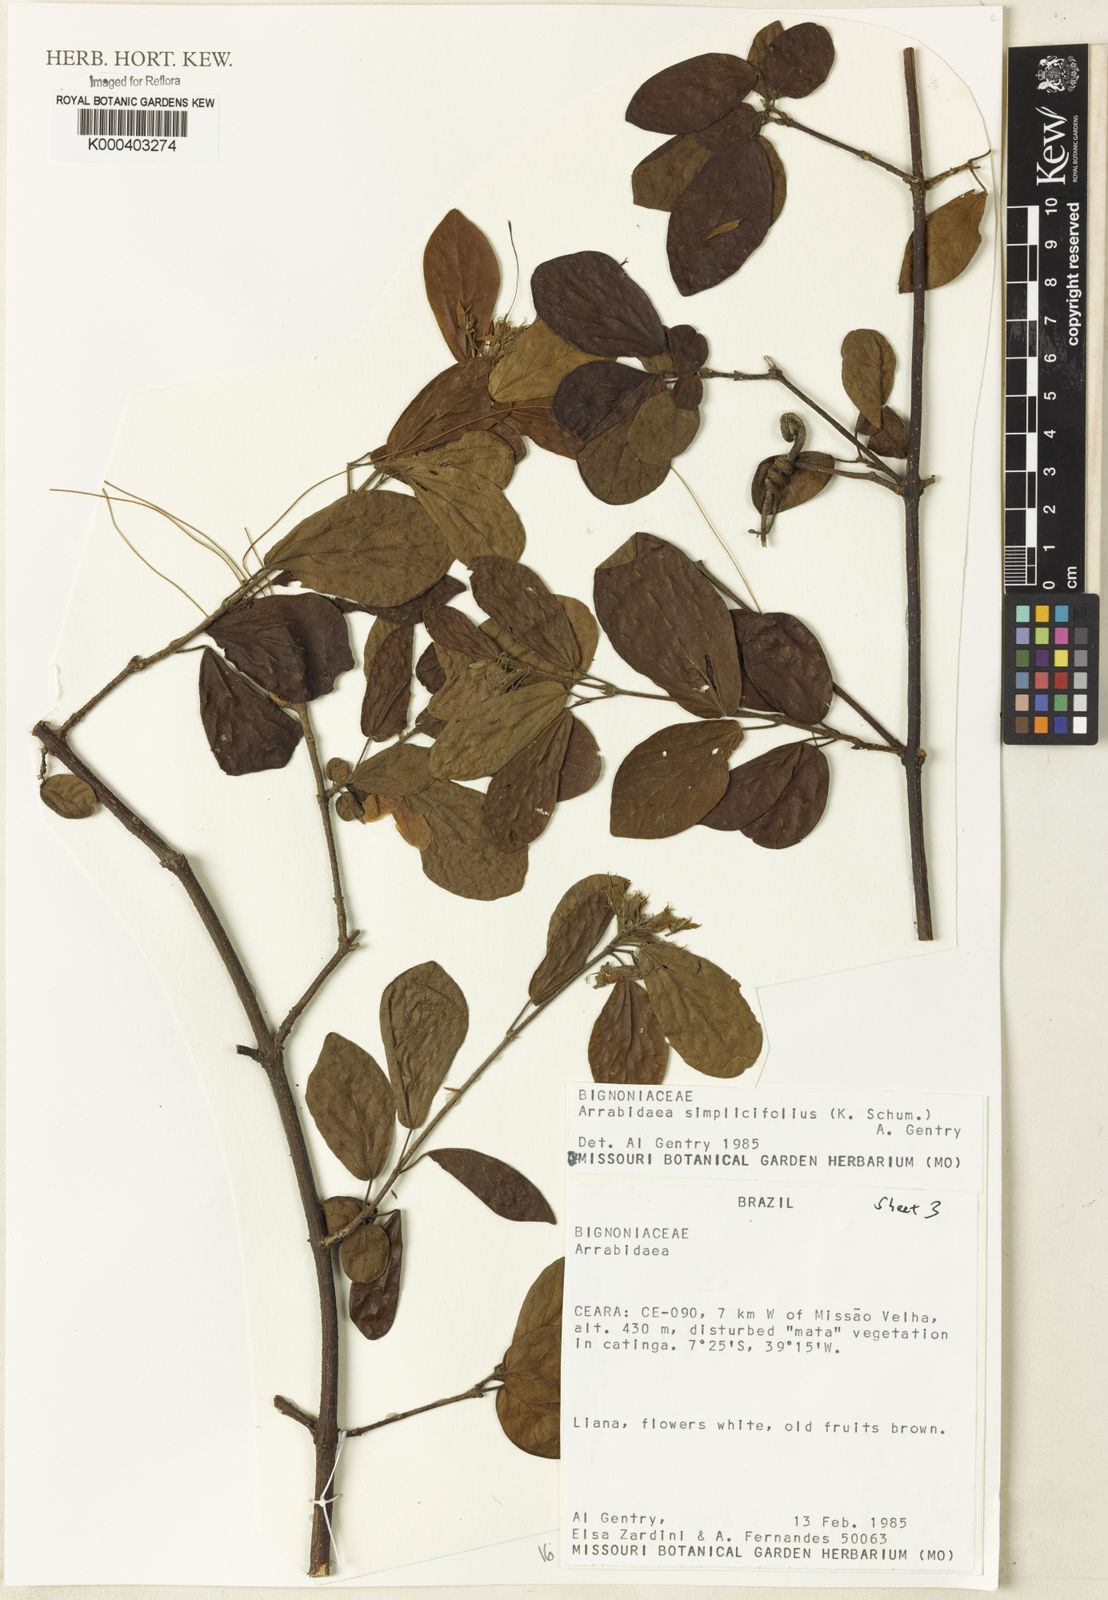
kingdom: Plantae
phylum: Tracheophyta
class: Magnoliopsida
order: Rosales
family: Rhamnaceae
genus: Arrabidaea
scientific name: Arrabidaea
